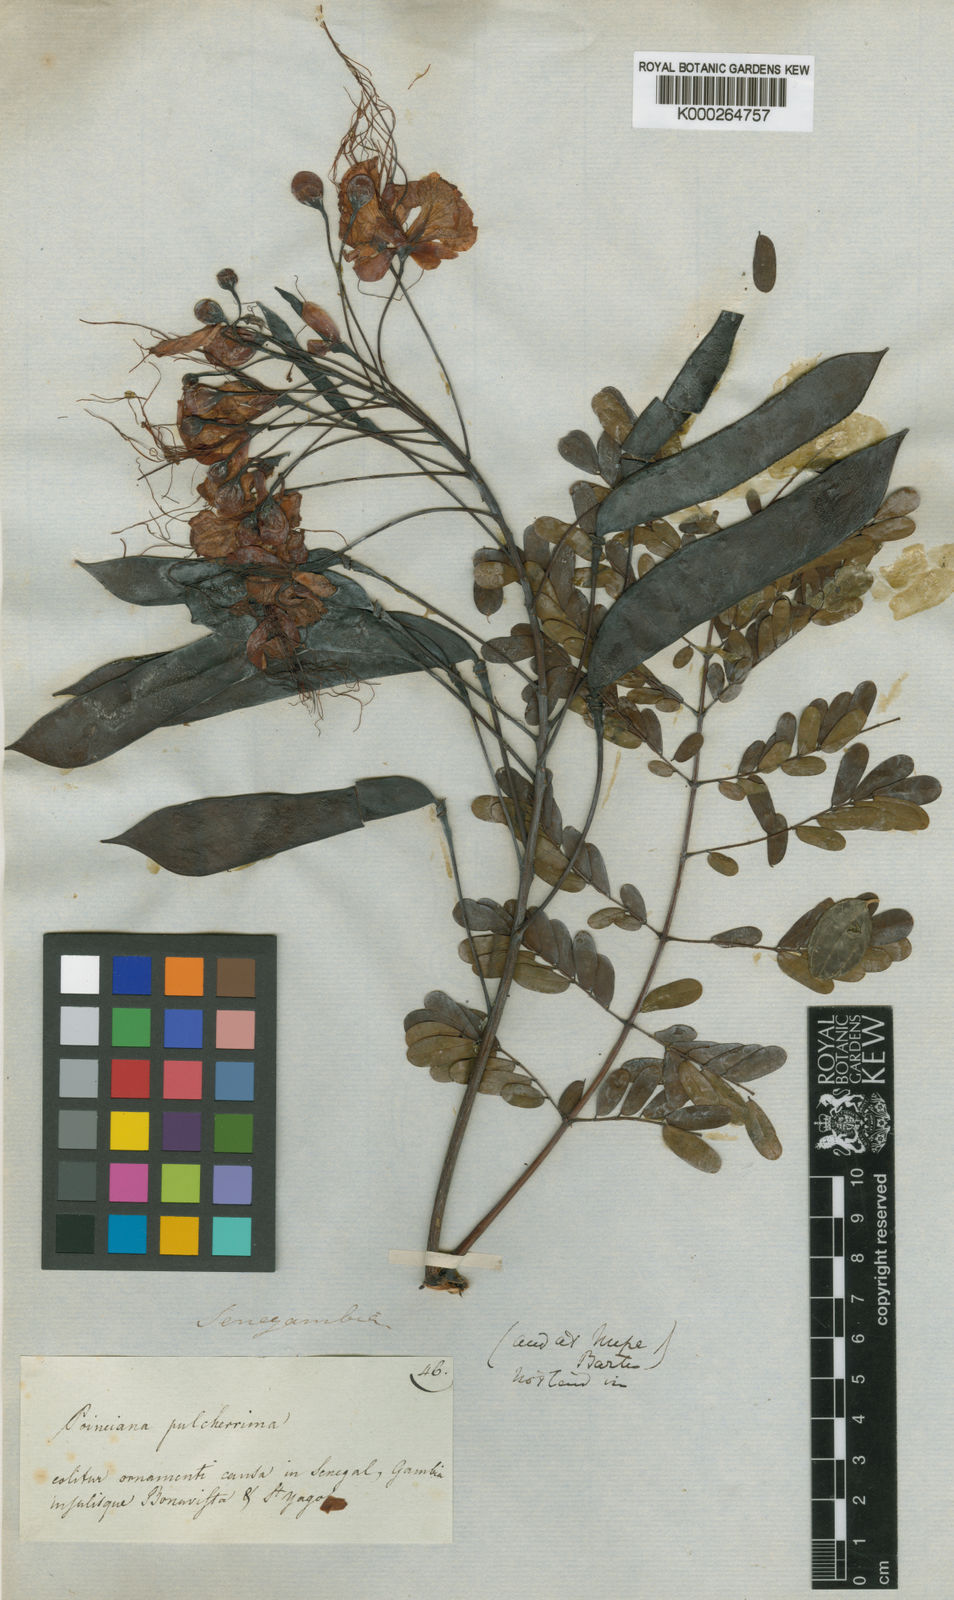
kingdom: Plantae
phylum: Tracheophyta
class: Magnoliopsida
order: Fabales
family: Fabaceae
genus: Caesalpinia
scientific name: Caesalpinia pulcherrima
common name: Pride-of-barbados
